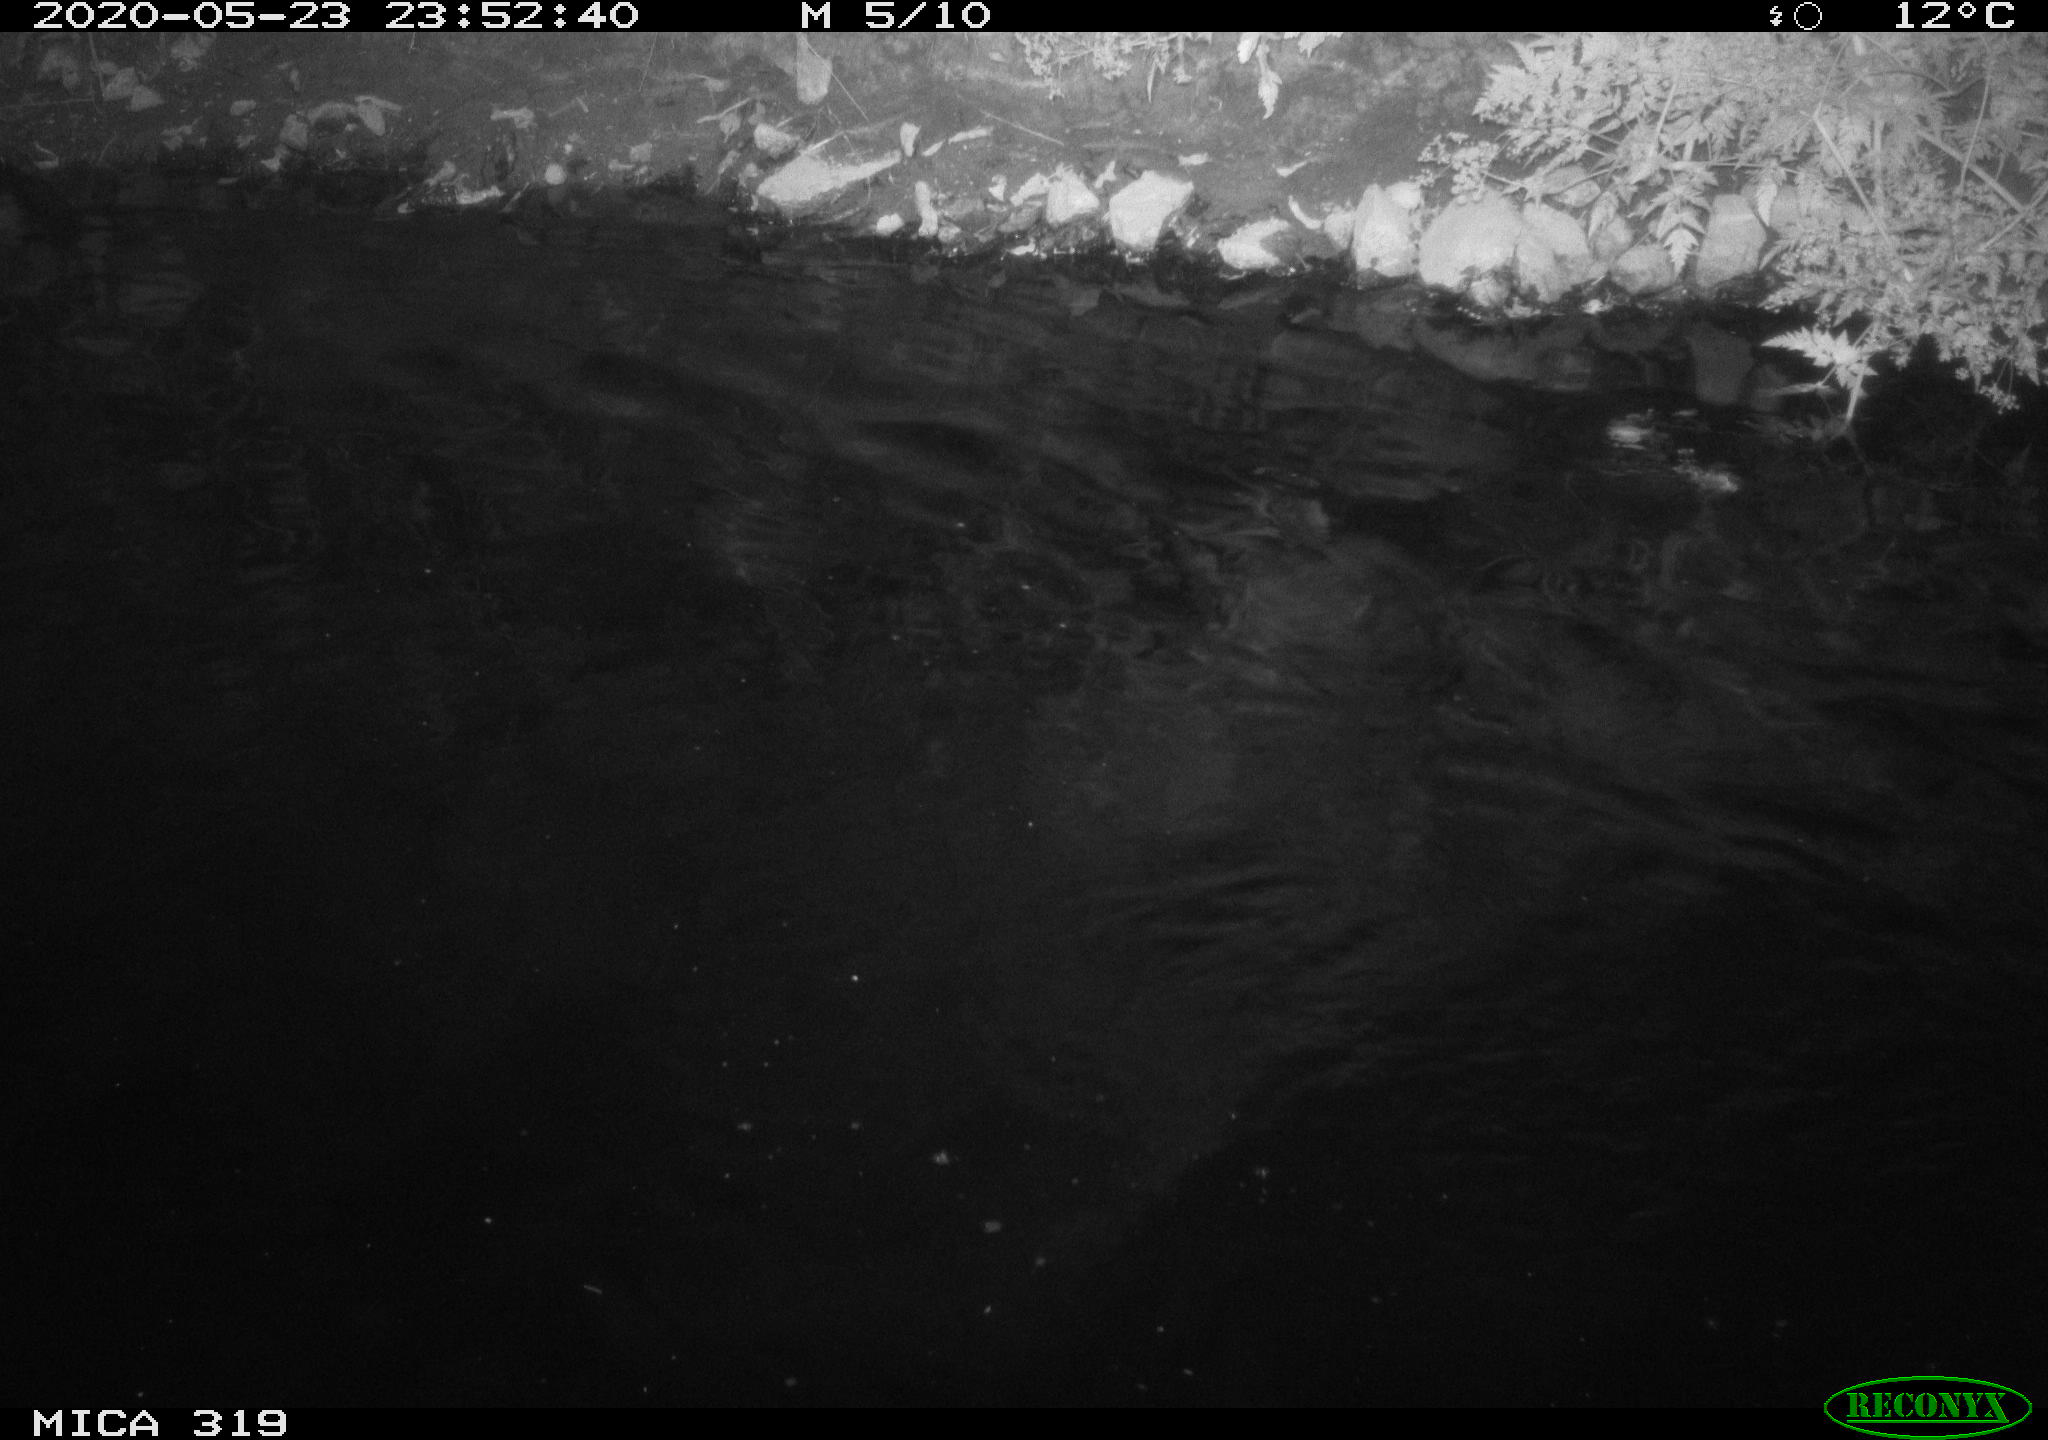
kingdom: Animalia
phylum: Chordata
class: Aves
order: Anseriformes
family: Anatidae
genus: Anas
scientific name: Anas platyrhynchos
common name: Mallard
